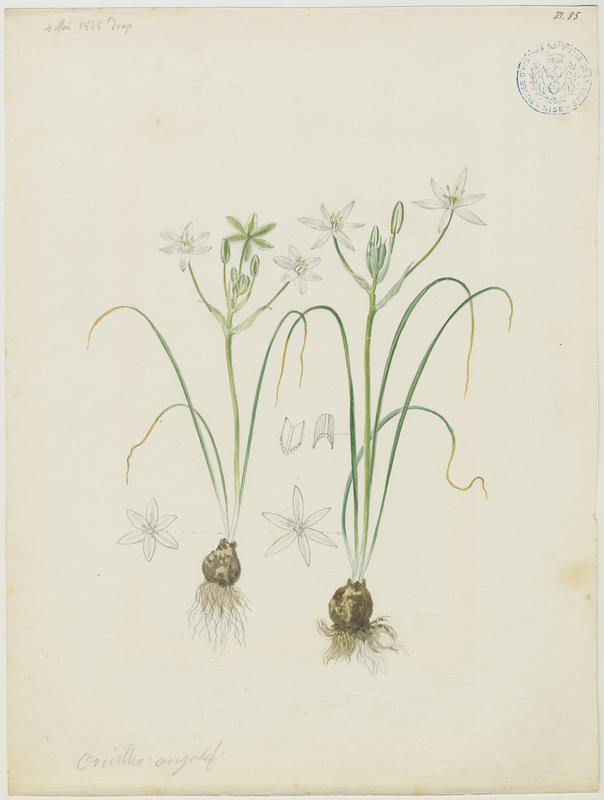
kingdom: Plantae
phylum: Tracheophyta
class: Liliopsida
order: Asparagales
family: Asparagaceae
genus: Ornithogalum
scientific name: Ornithogalum umbellatum
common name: Garden star-of-bethlehem
